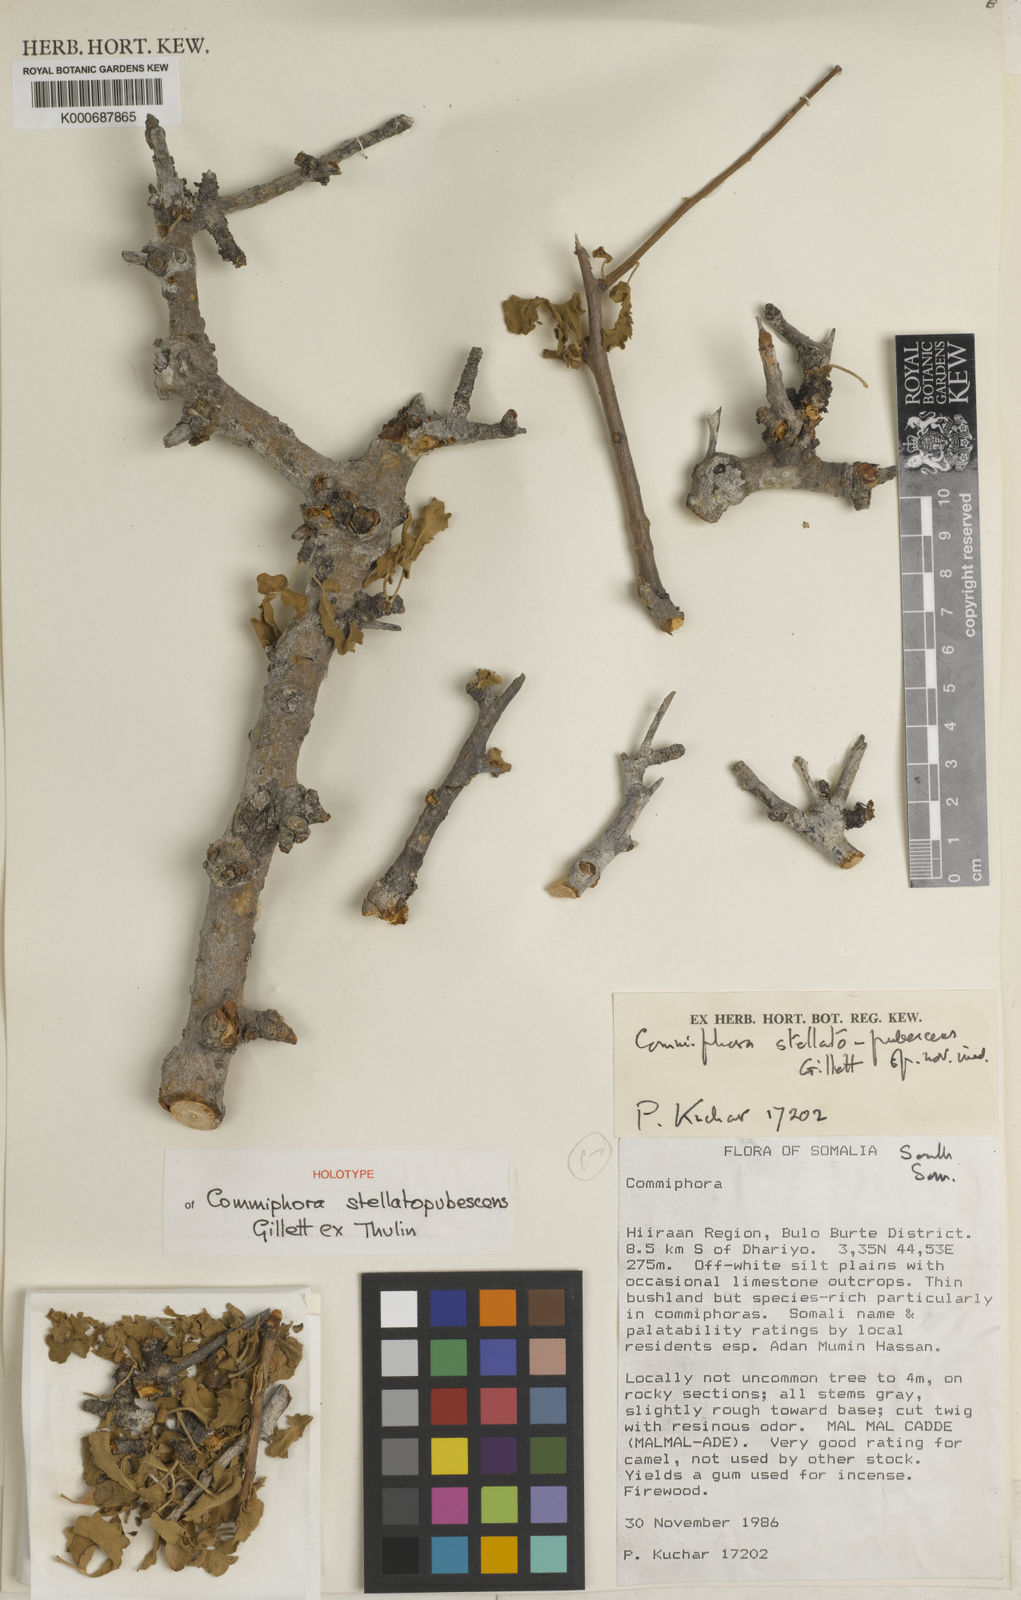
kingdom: Plantae
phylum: Tracheophyta
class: Magnoliopsida
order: Sapindales
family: Burseraceae
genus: Commiphora
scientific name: Commiphora stellatopubescens
